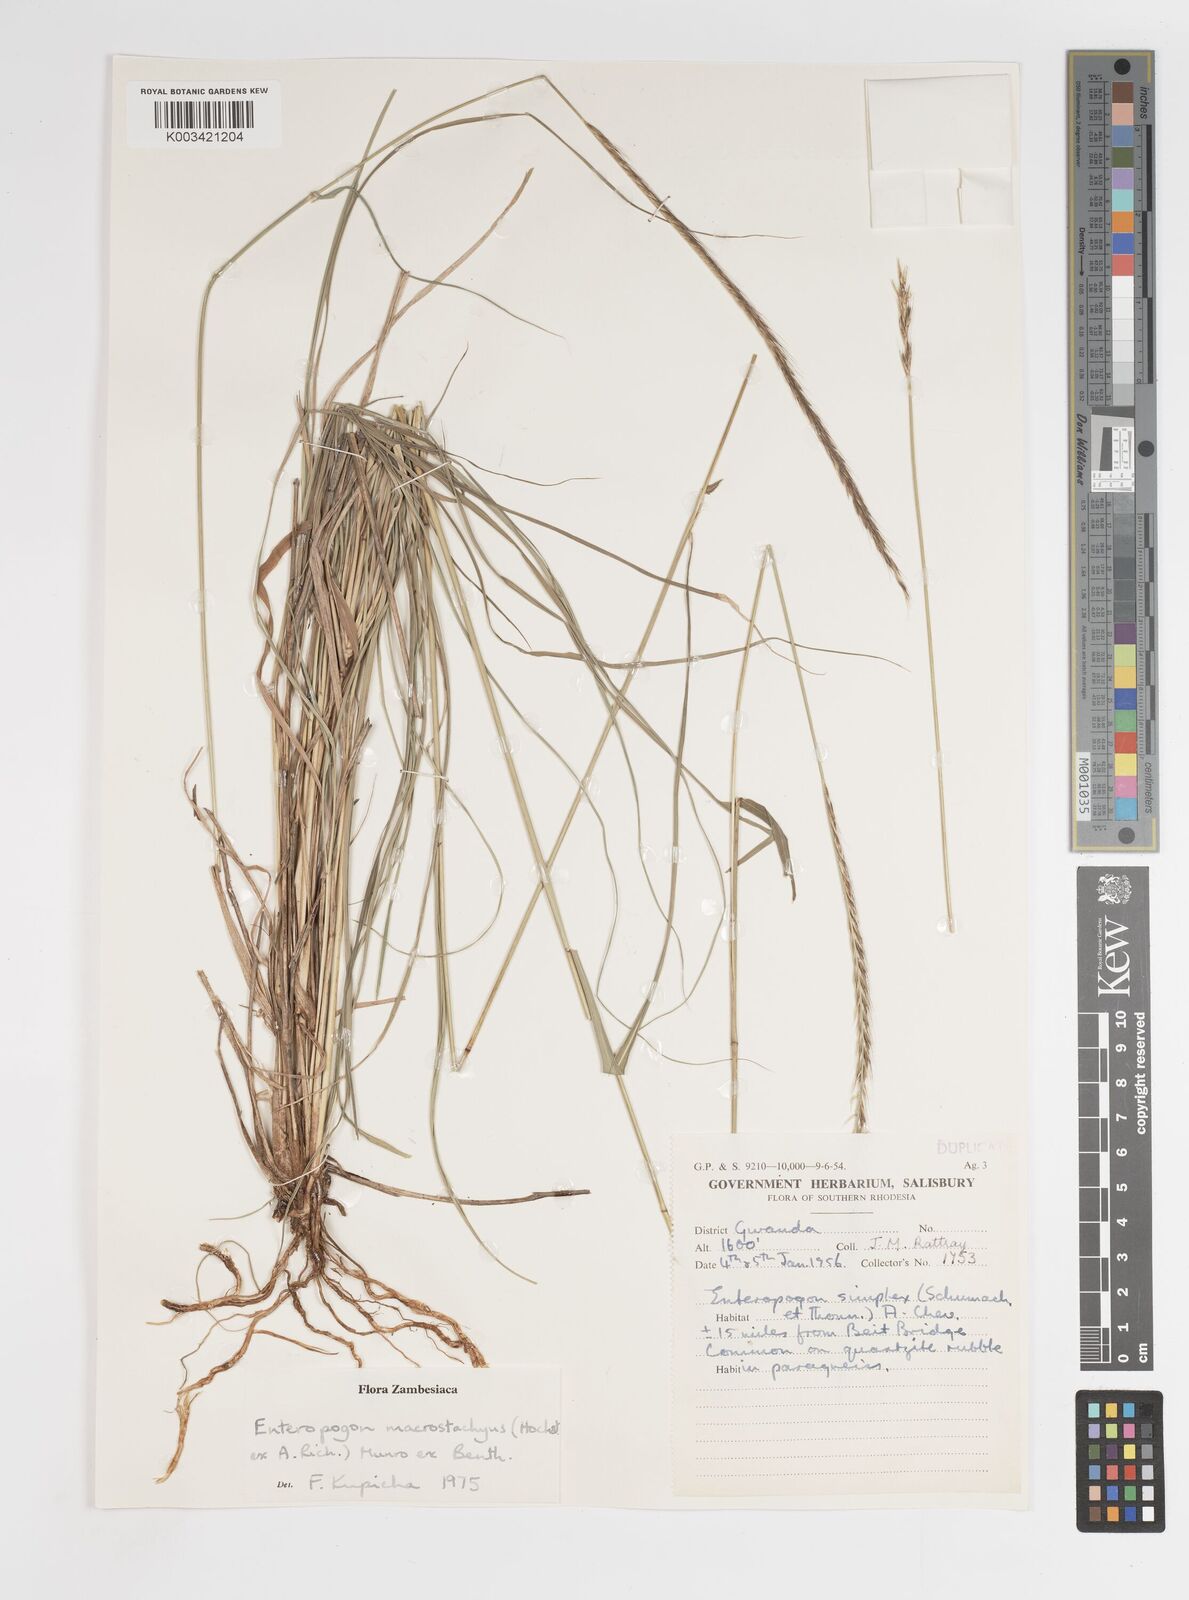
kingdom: Plantae
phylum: Tracheophyta
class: Liliopsida
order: Poales
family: Poaceae
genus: Enteropogon
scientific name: Enteropogon macrostachyus
